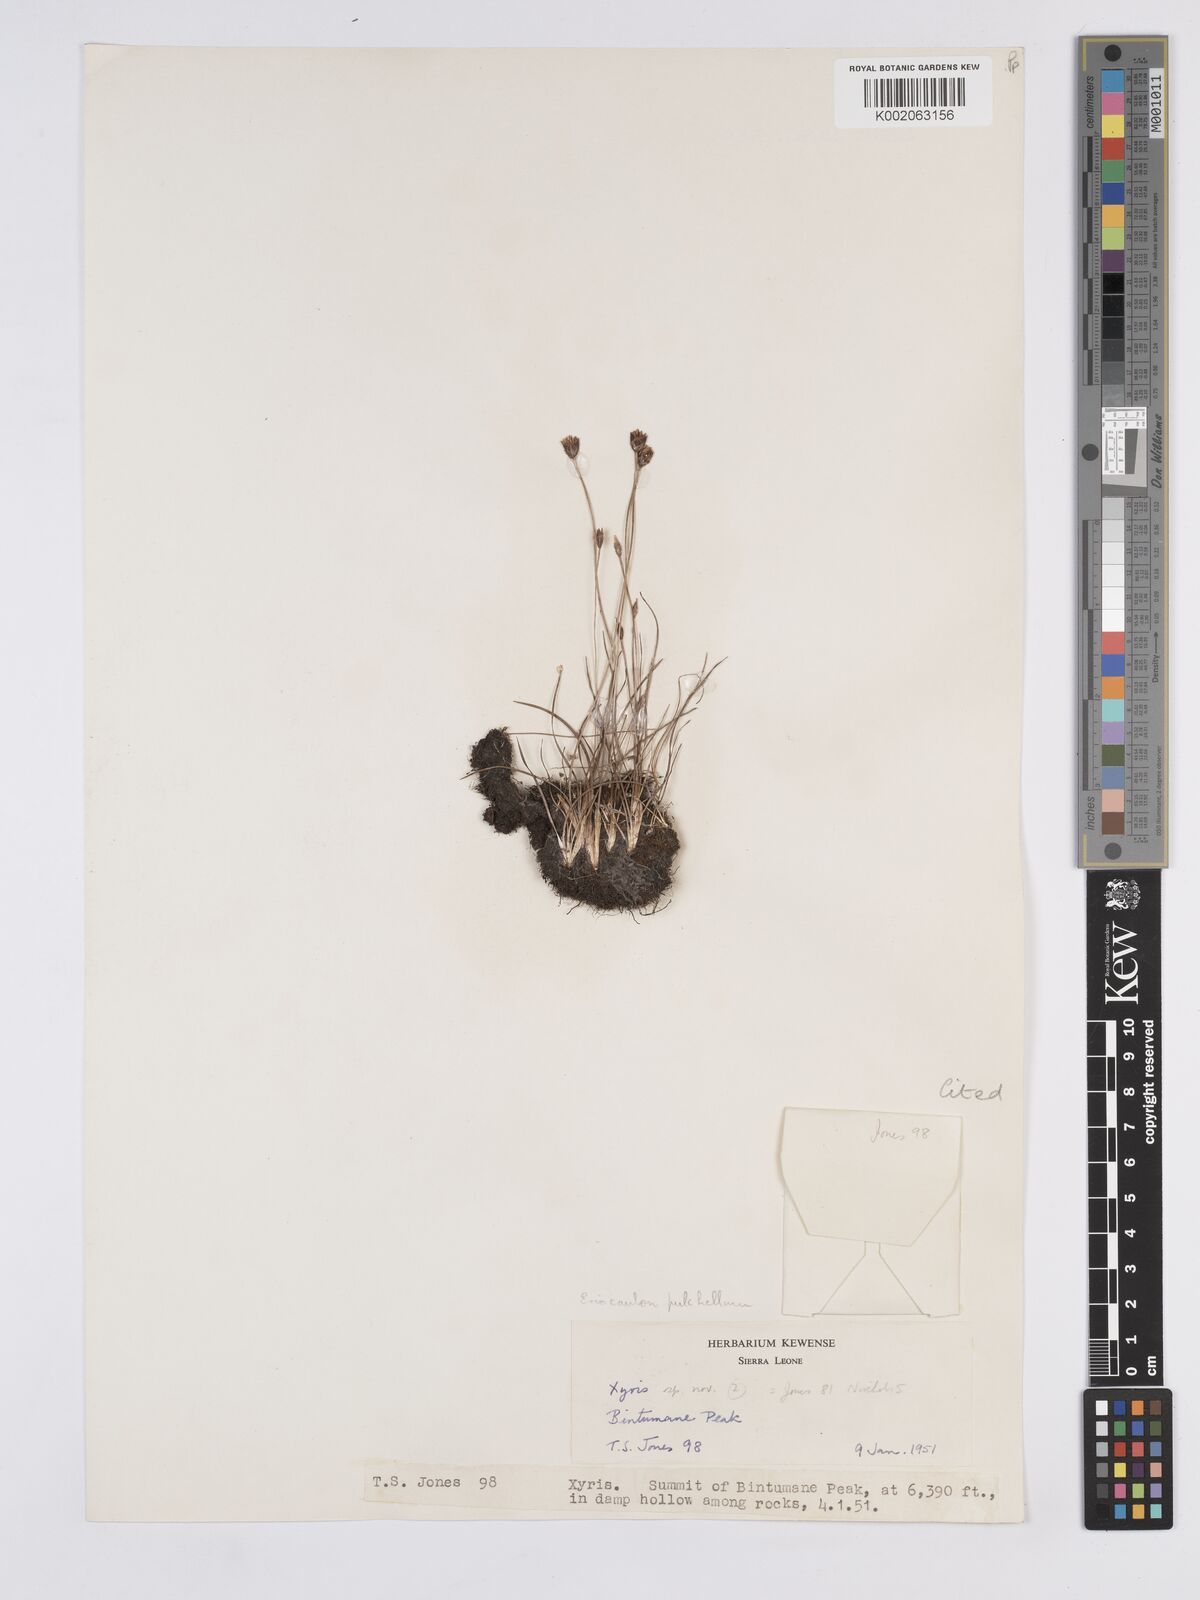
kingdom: Plantae
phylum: Tracheophyta
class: Liliopsida
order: Poales
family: Xyridaceae
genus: Xyris
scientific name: Xyris festucifolia
